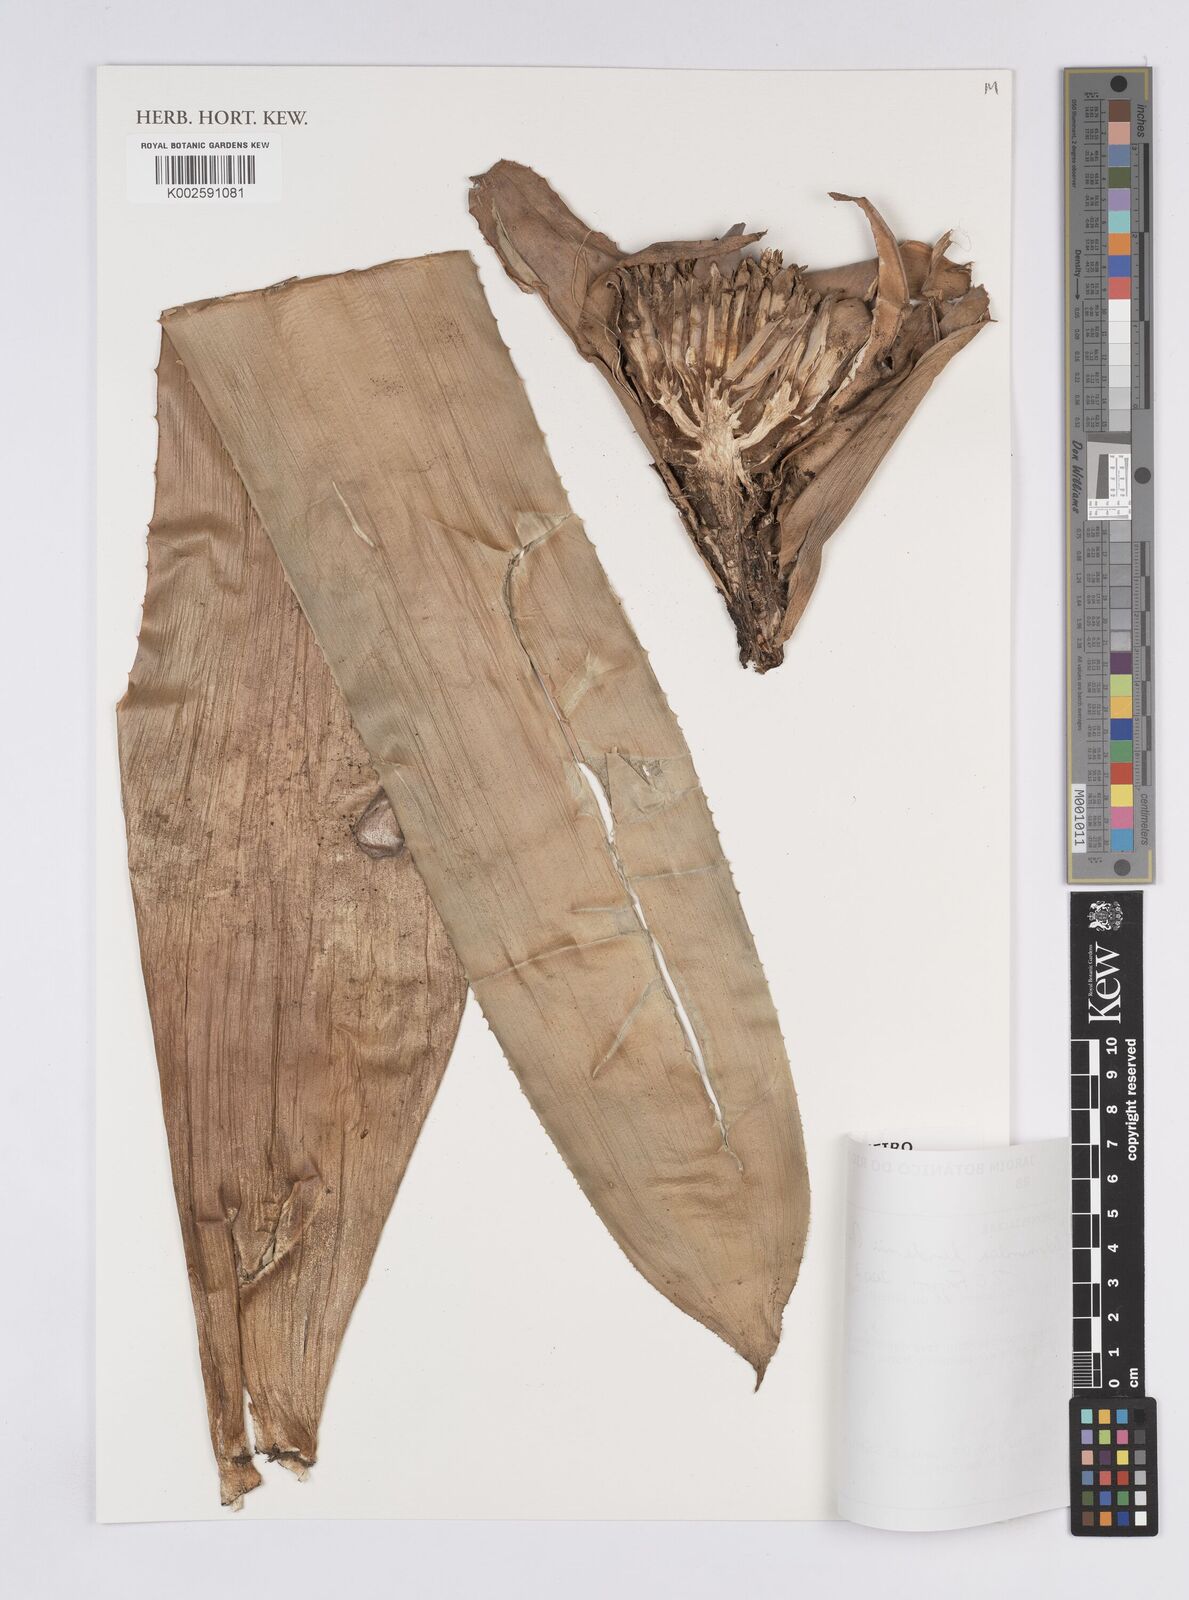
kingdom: Plantae
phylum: Tracheophyta
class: Liliopsida
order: Poales
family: Bromeliaceae
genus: Hohenbergia
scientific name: Hohenbergia augusta
